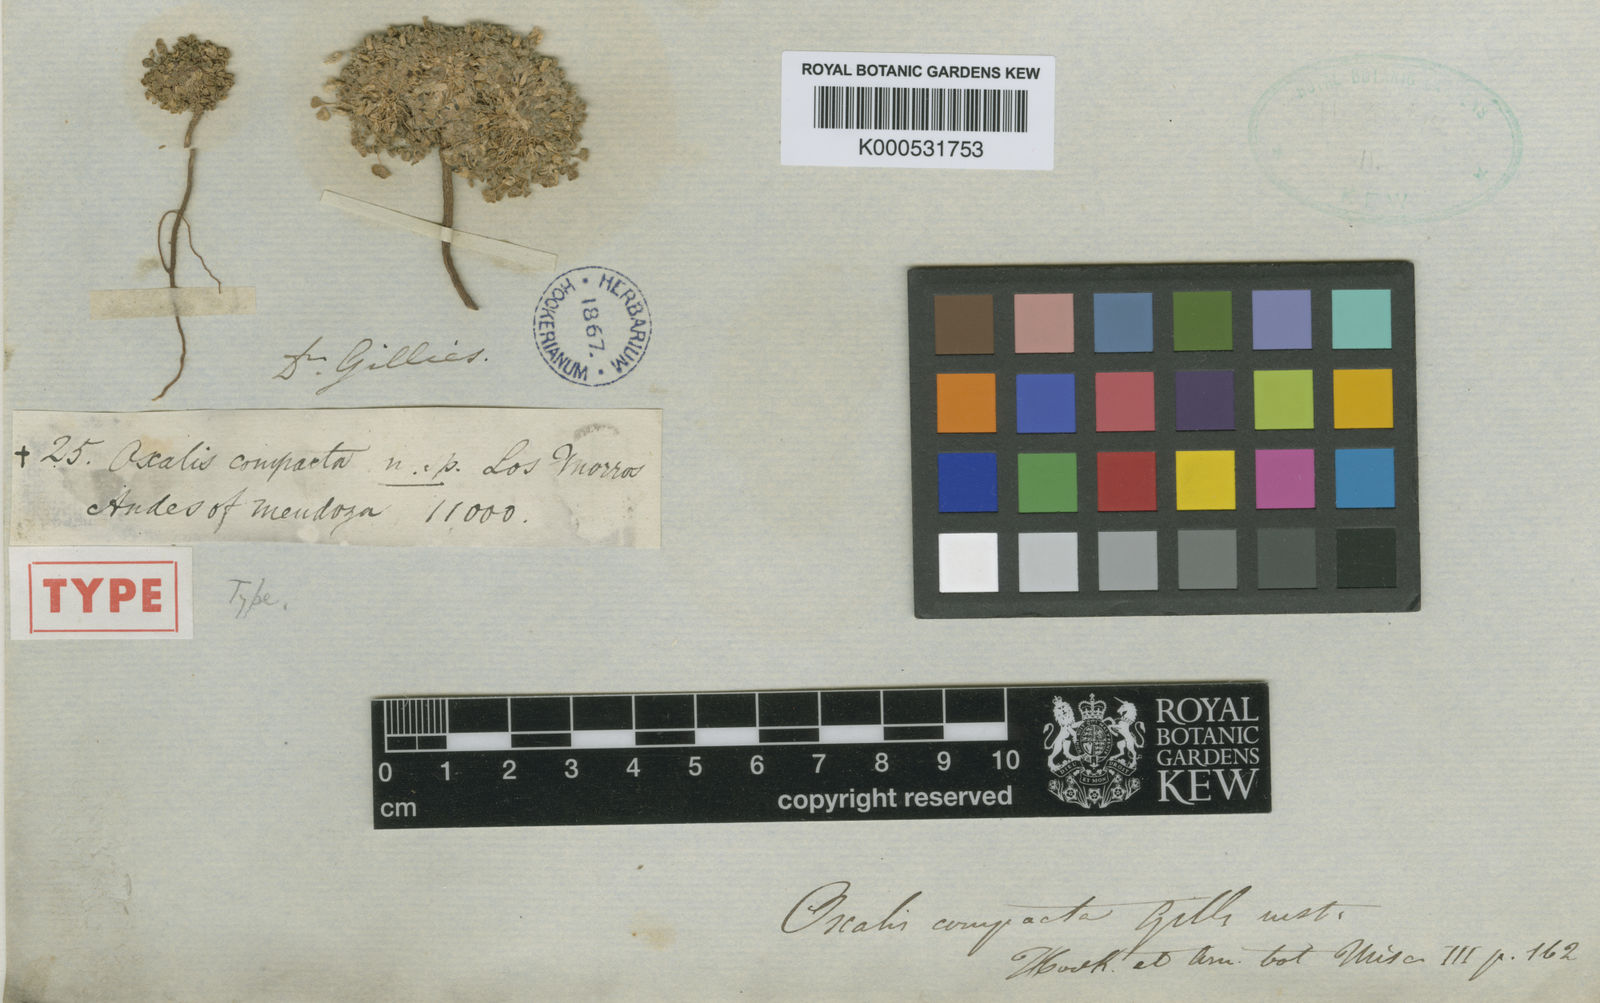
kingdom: Plantae
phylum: Tracheophyta
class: Magnoliopsida
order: Oxalidales
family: Oxalidaceae
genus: Oxalis
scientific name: Oxalis compacta
